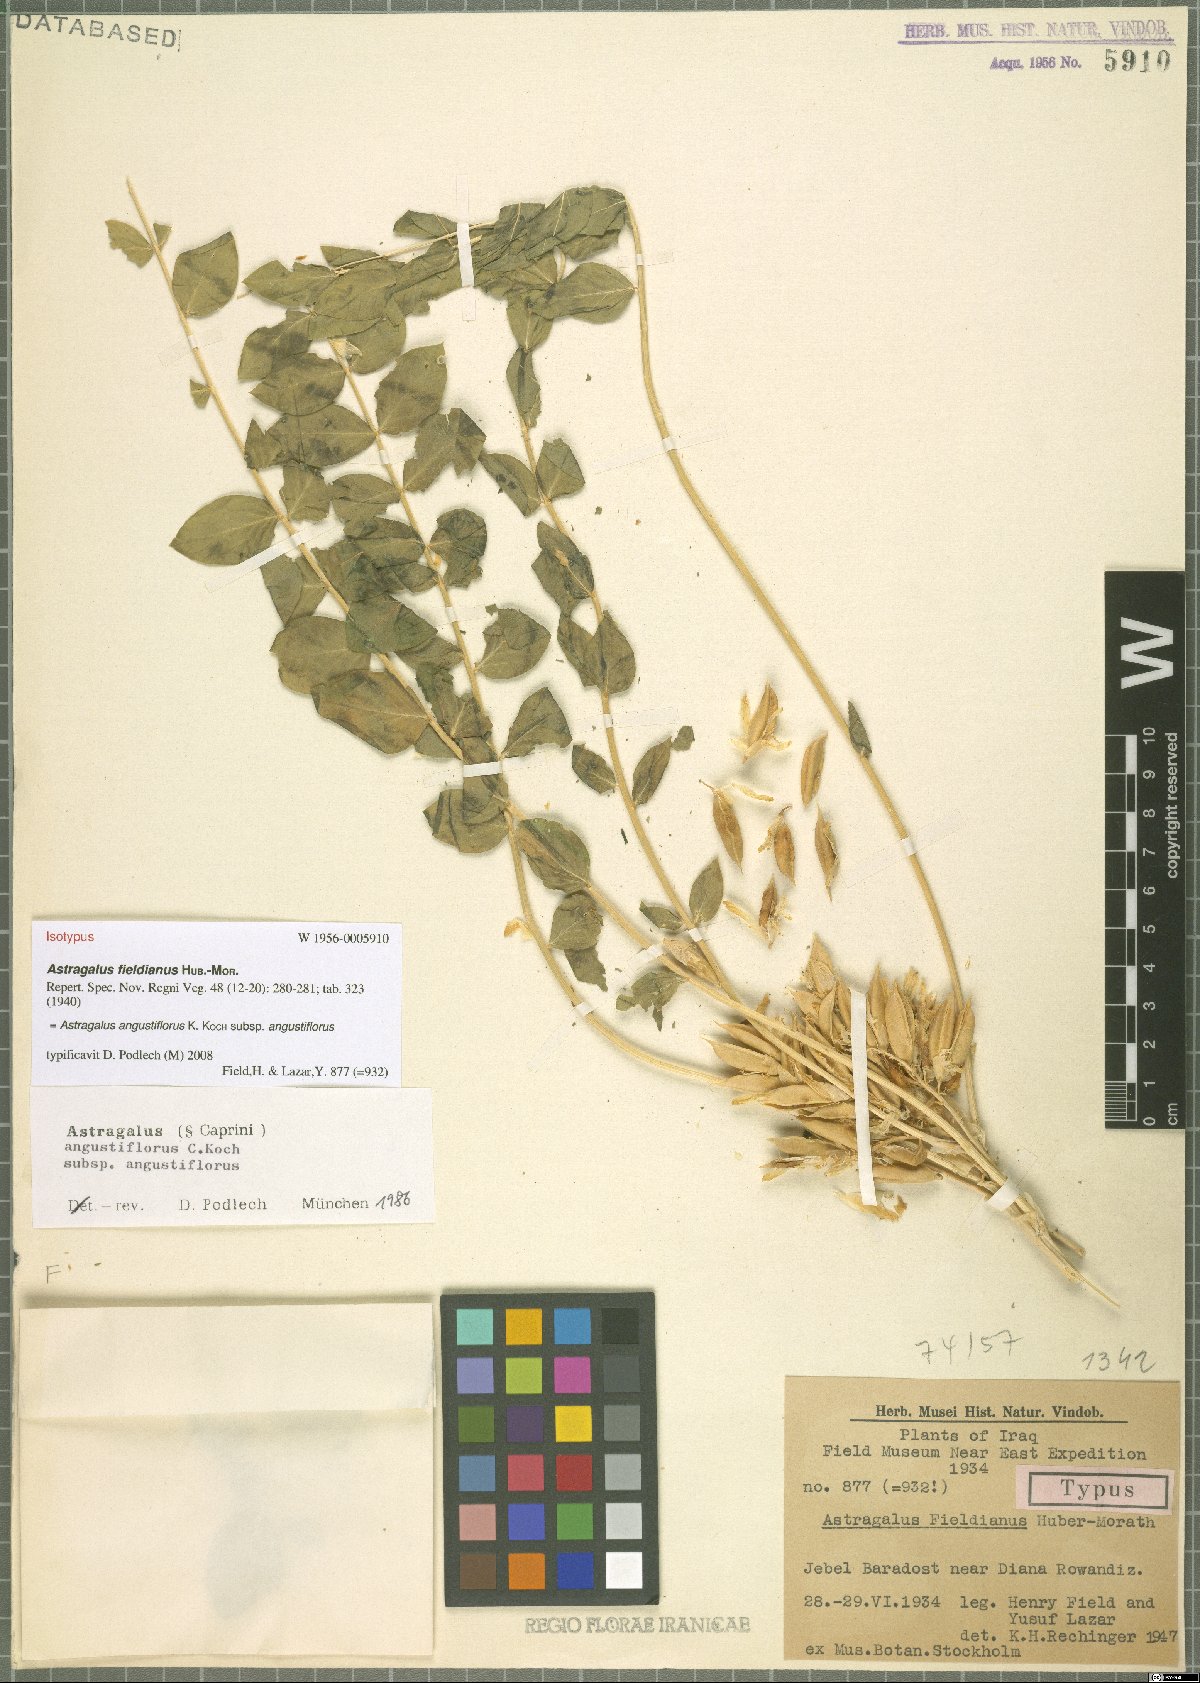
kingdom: Plantae
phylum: Tracheophyta
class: Magnoliopsida
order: Fabales
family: Fabaceae
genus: Astragalus
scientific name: Astragalus angustiflorus
